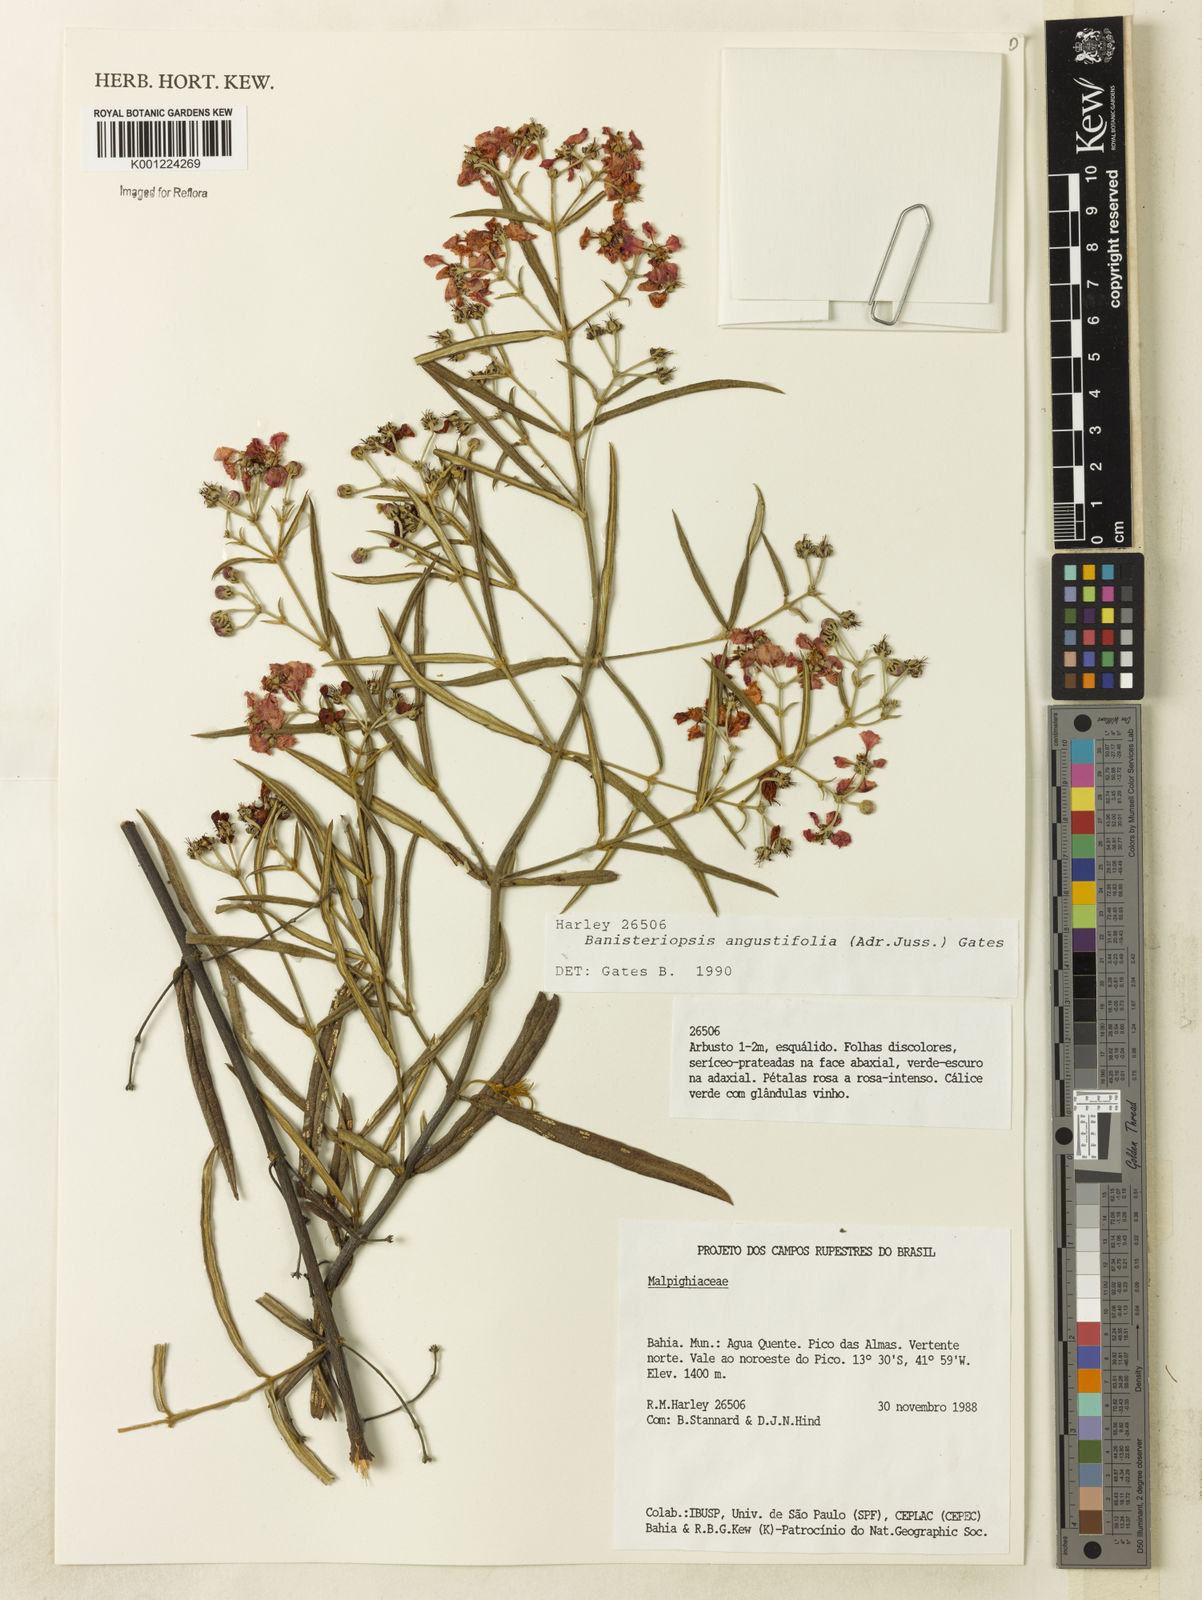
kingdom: Plantae
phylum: Tracheophyta
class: Magnoliopsida
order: Malpighiales
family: Malpighiaceae
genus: Banisteriopsis
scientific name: Banisteriopsis angustifolia
